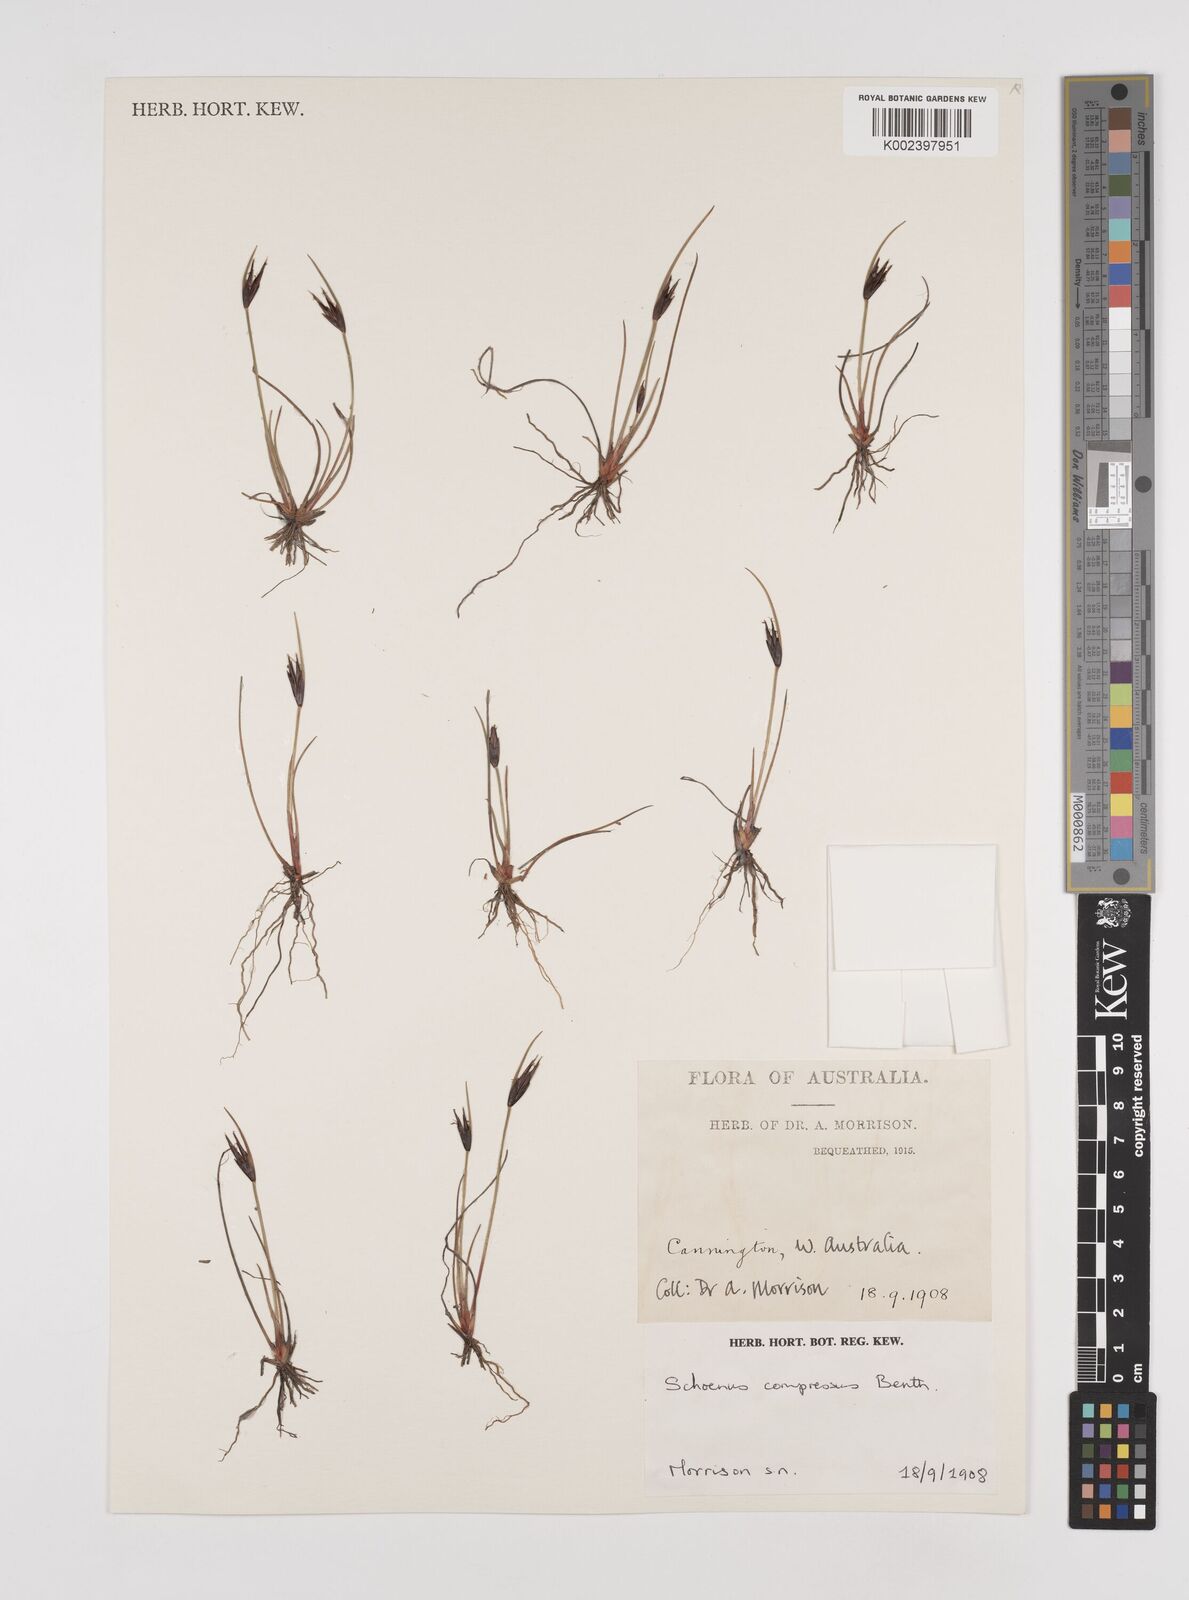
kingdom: Plantae
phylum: Tracheophyta
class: Liliopsida
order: Poales
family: Cyperaceae
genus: Schoenus
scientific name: Schoenus benthamii
